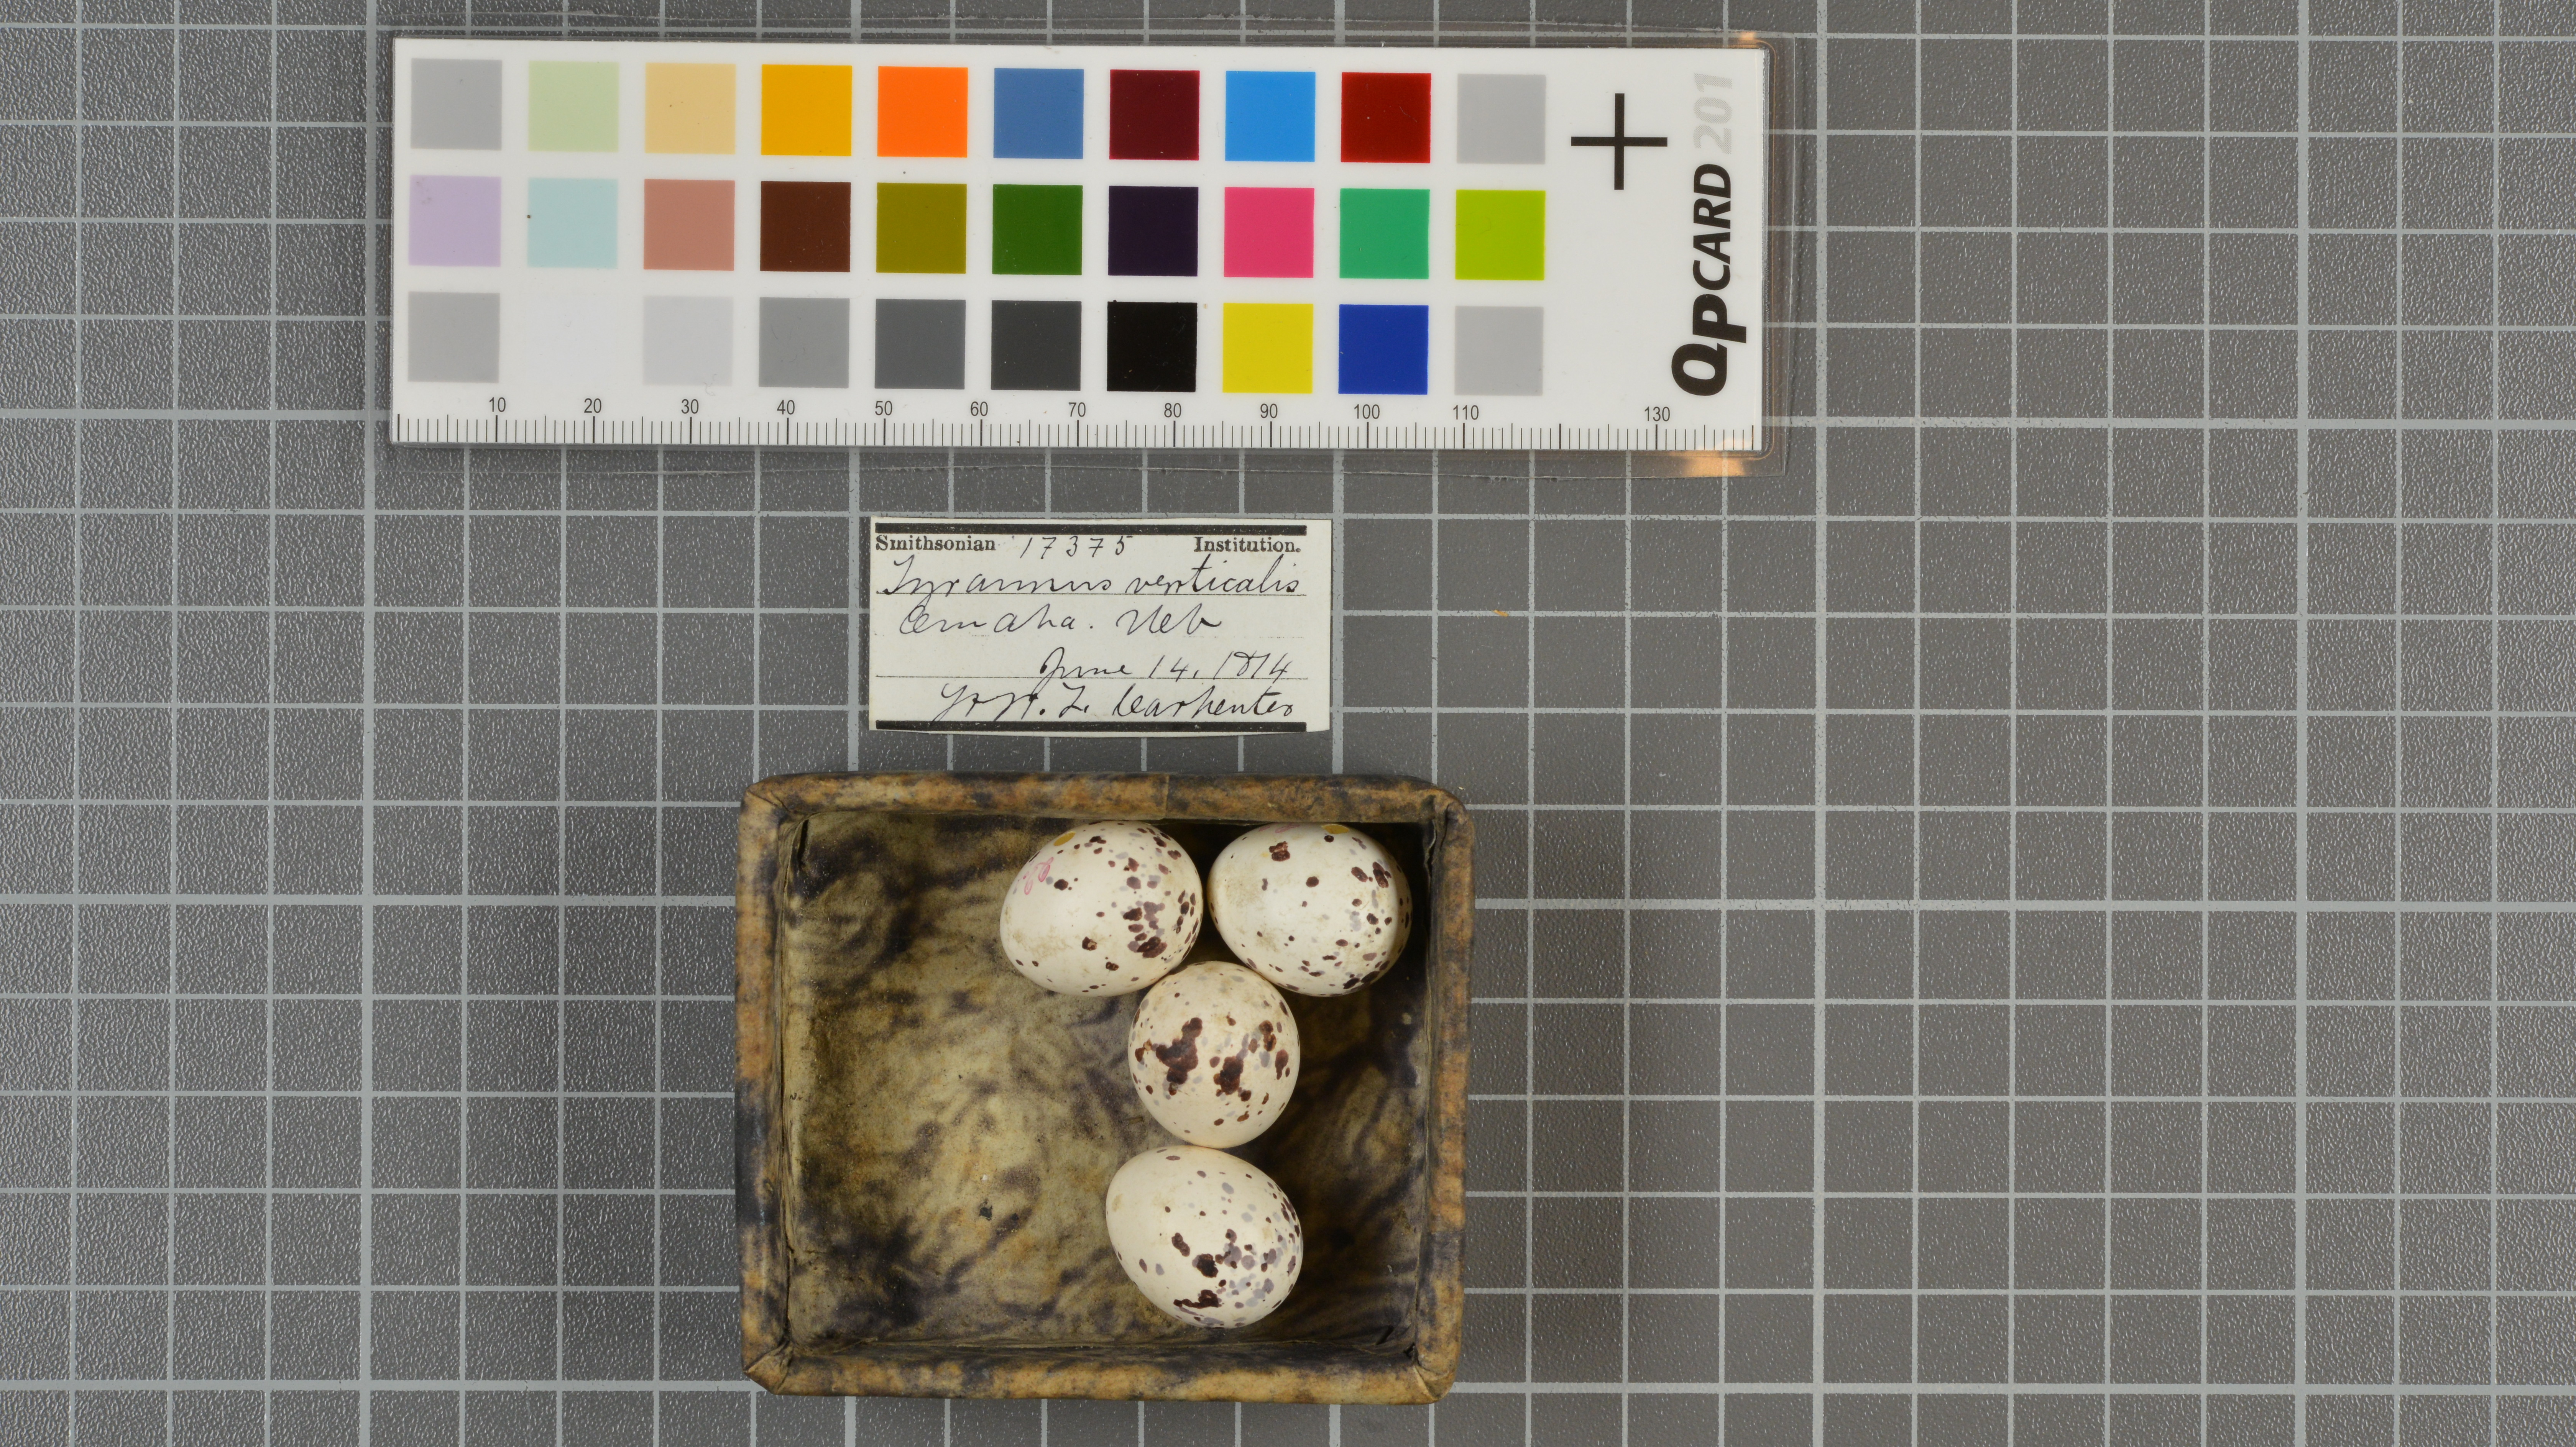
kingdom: Animalia
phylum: Chordata
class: Aves
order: Passeriformes
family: Tyrannidae
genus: Tyrannus
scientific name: Tyrannus verticalis
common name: Western kingbird
